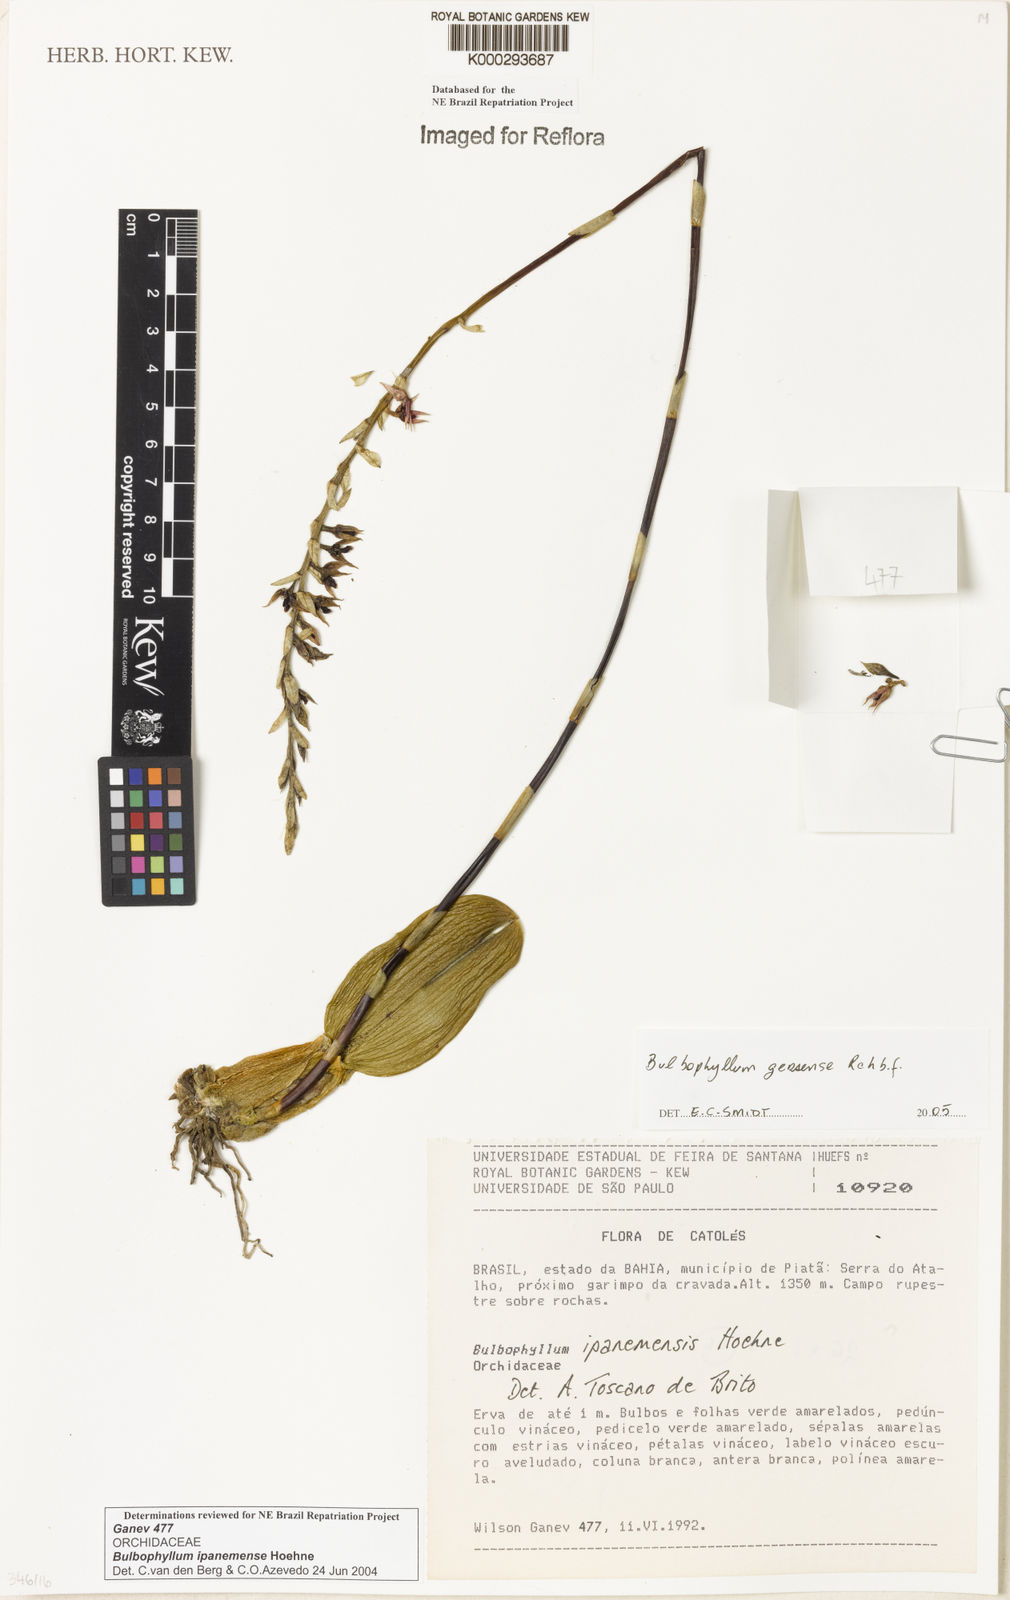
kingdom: Plantae
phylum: Tracheophyta
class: Liliopsida
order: Asparagales
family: Orchidaceae
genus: Bulbophyllum
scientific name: Bulbophyllum ipanemense
